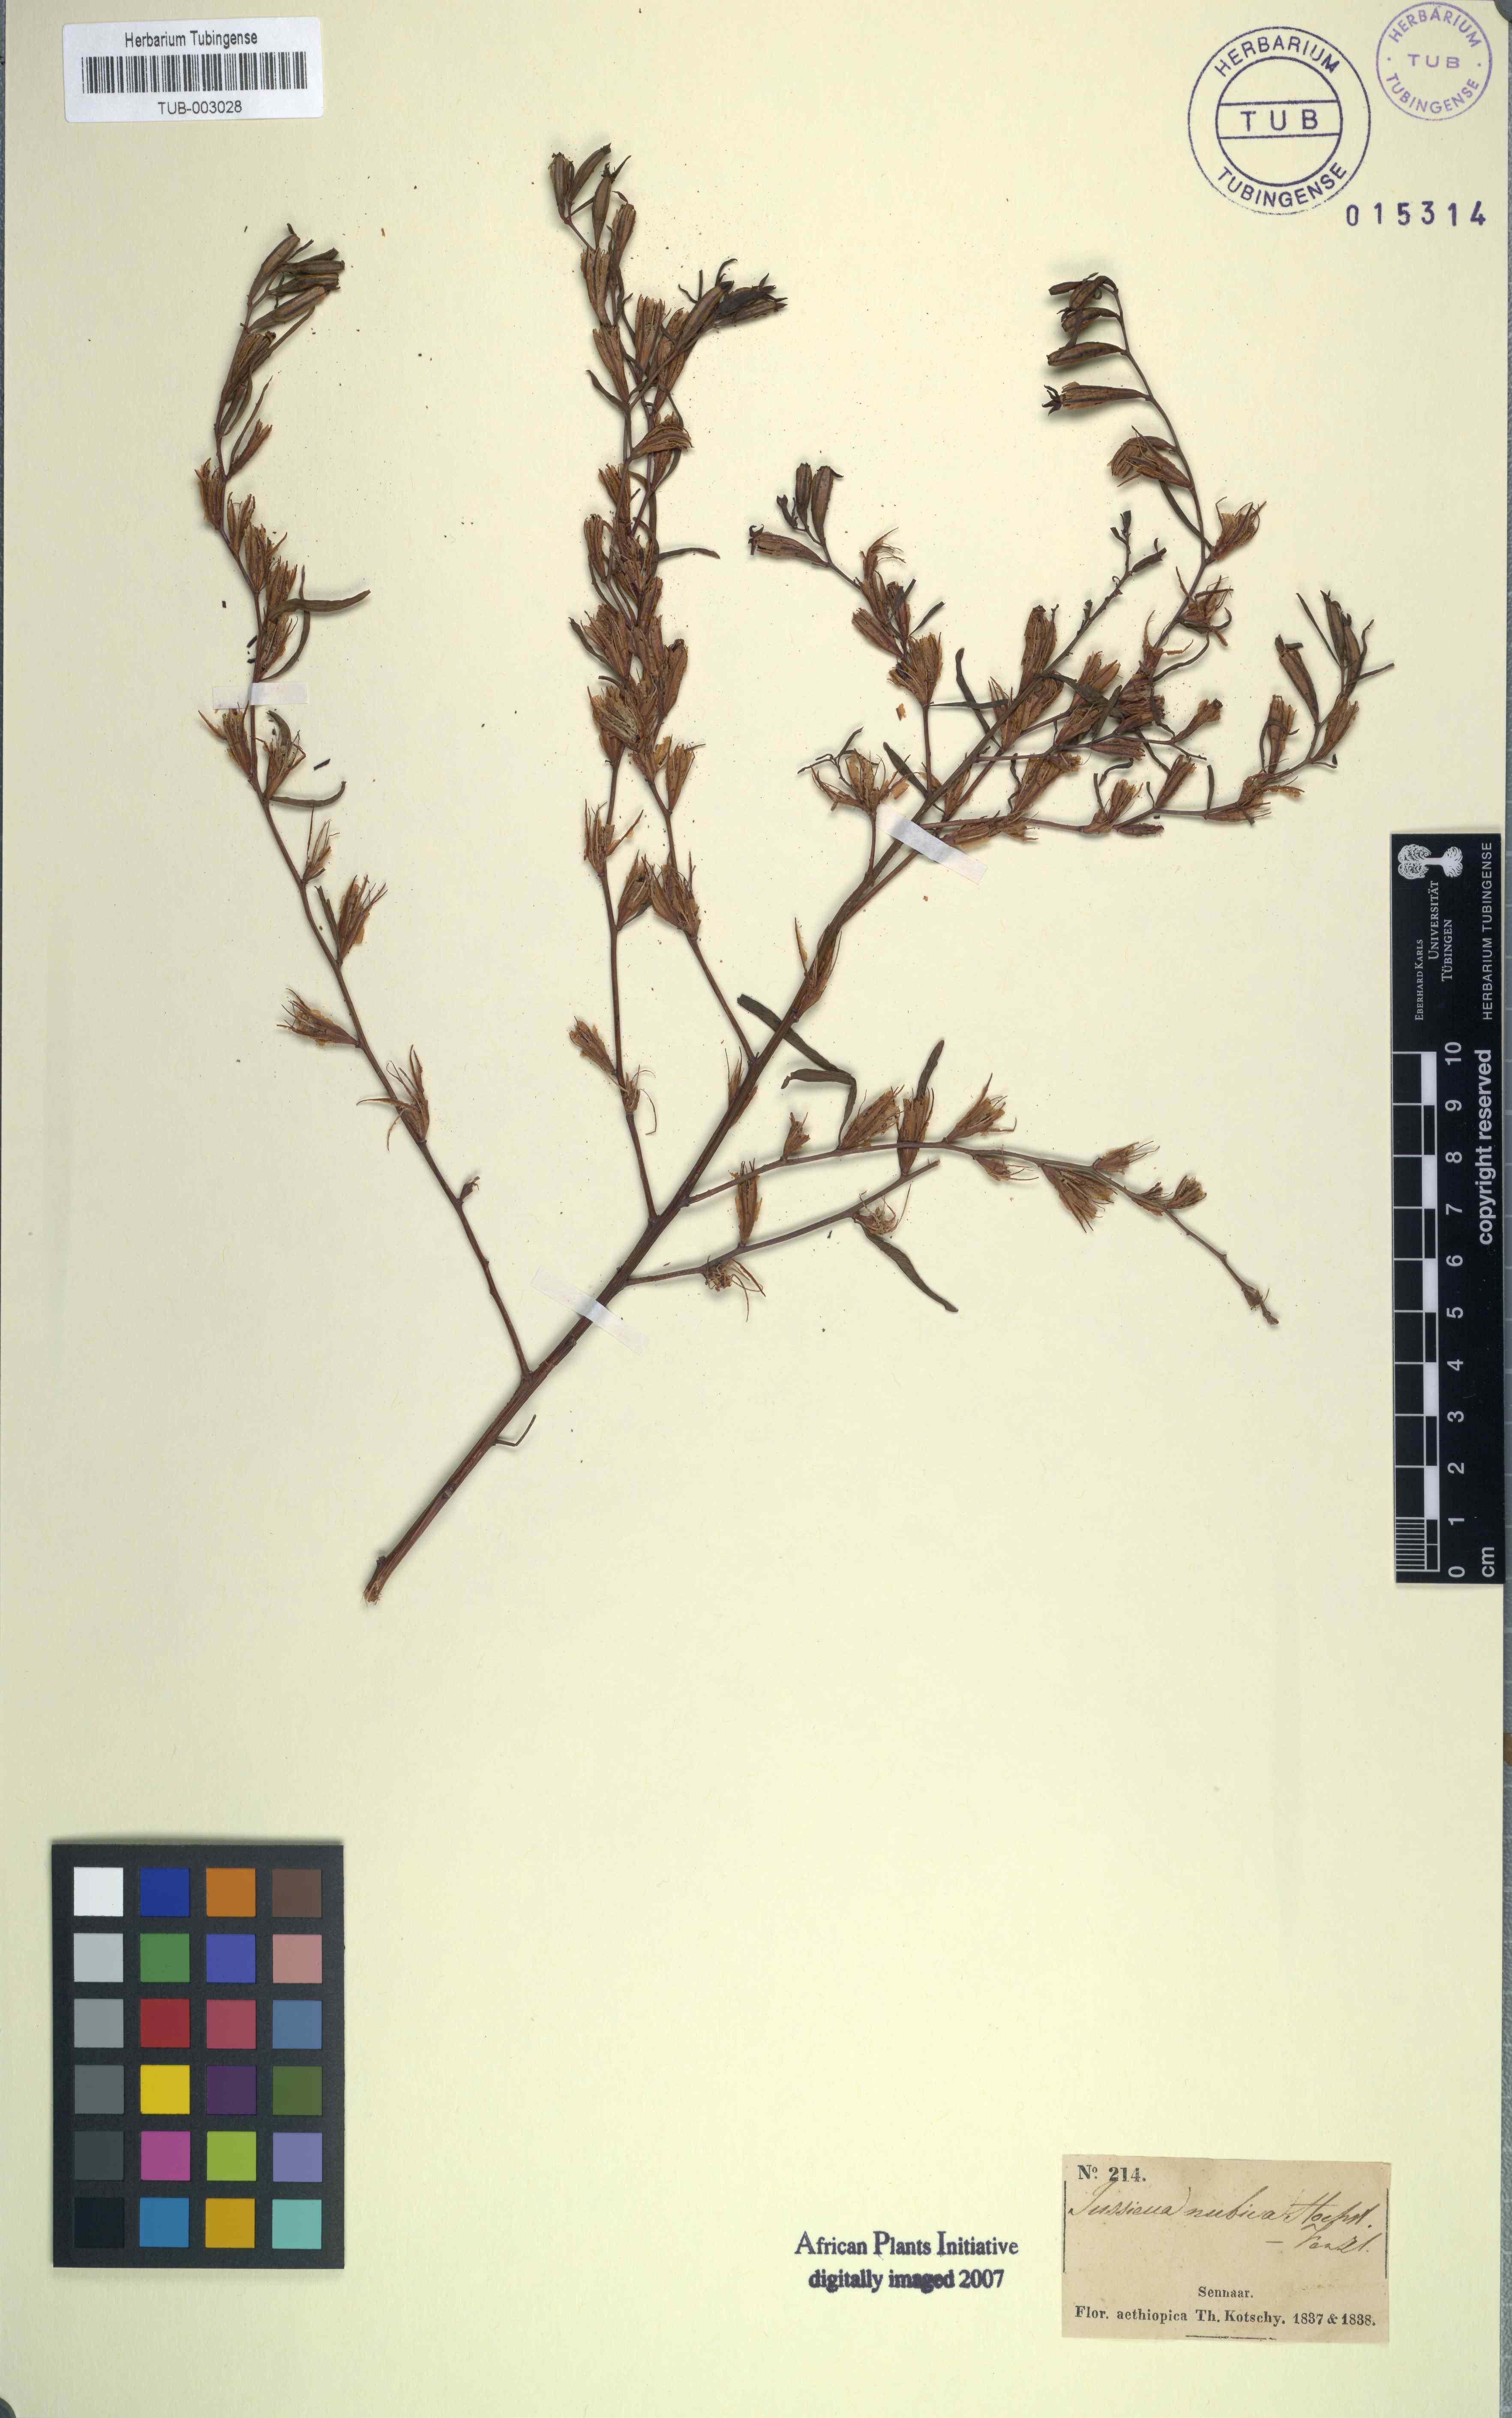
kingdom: Plantae
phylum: Tracheophyta
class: Magnoliopsida
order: Myrtales
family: Onagraceae
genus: Ludwigia
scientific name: Ludwigia hyssopifolia
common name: Linear leaf water primrose
